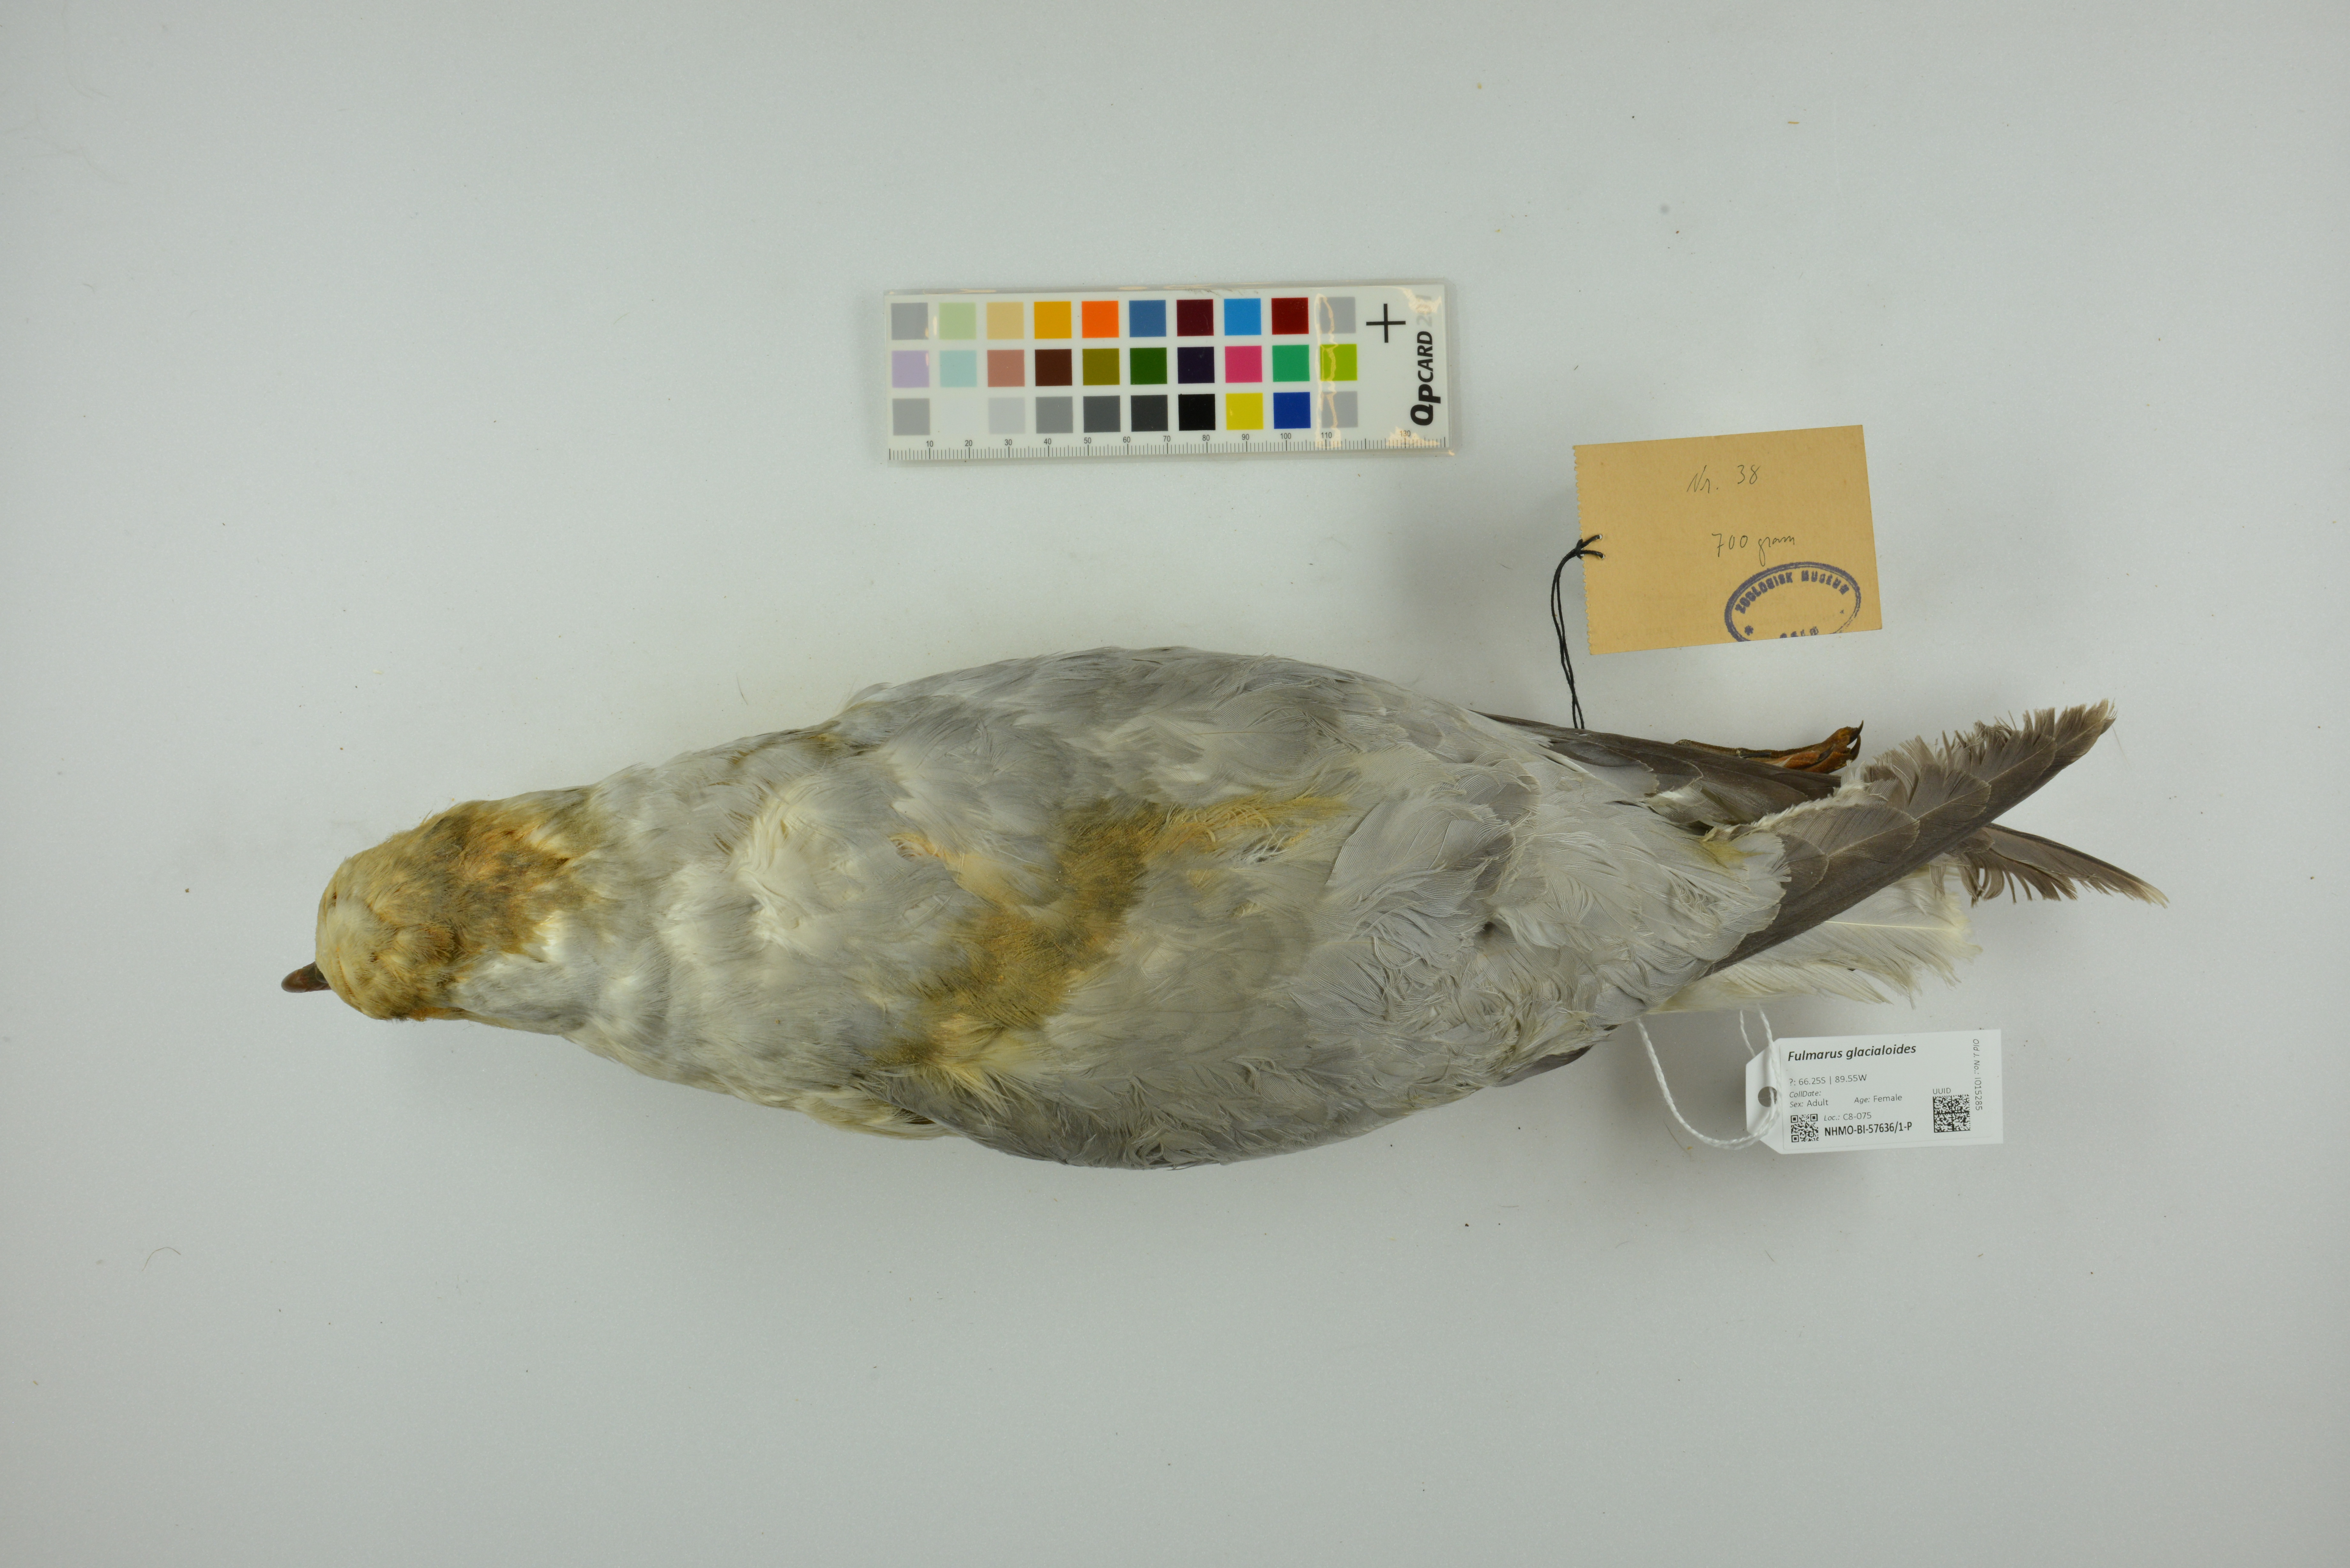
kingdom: Animalia
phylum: Chordata
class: Aves
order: Procellariiformes
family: Procellariidae
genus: Fulmarus
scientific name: Fulmarus glacialoides
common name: Southern fulmar
